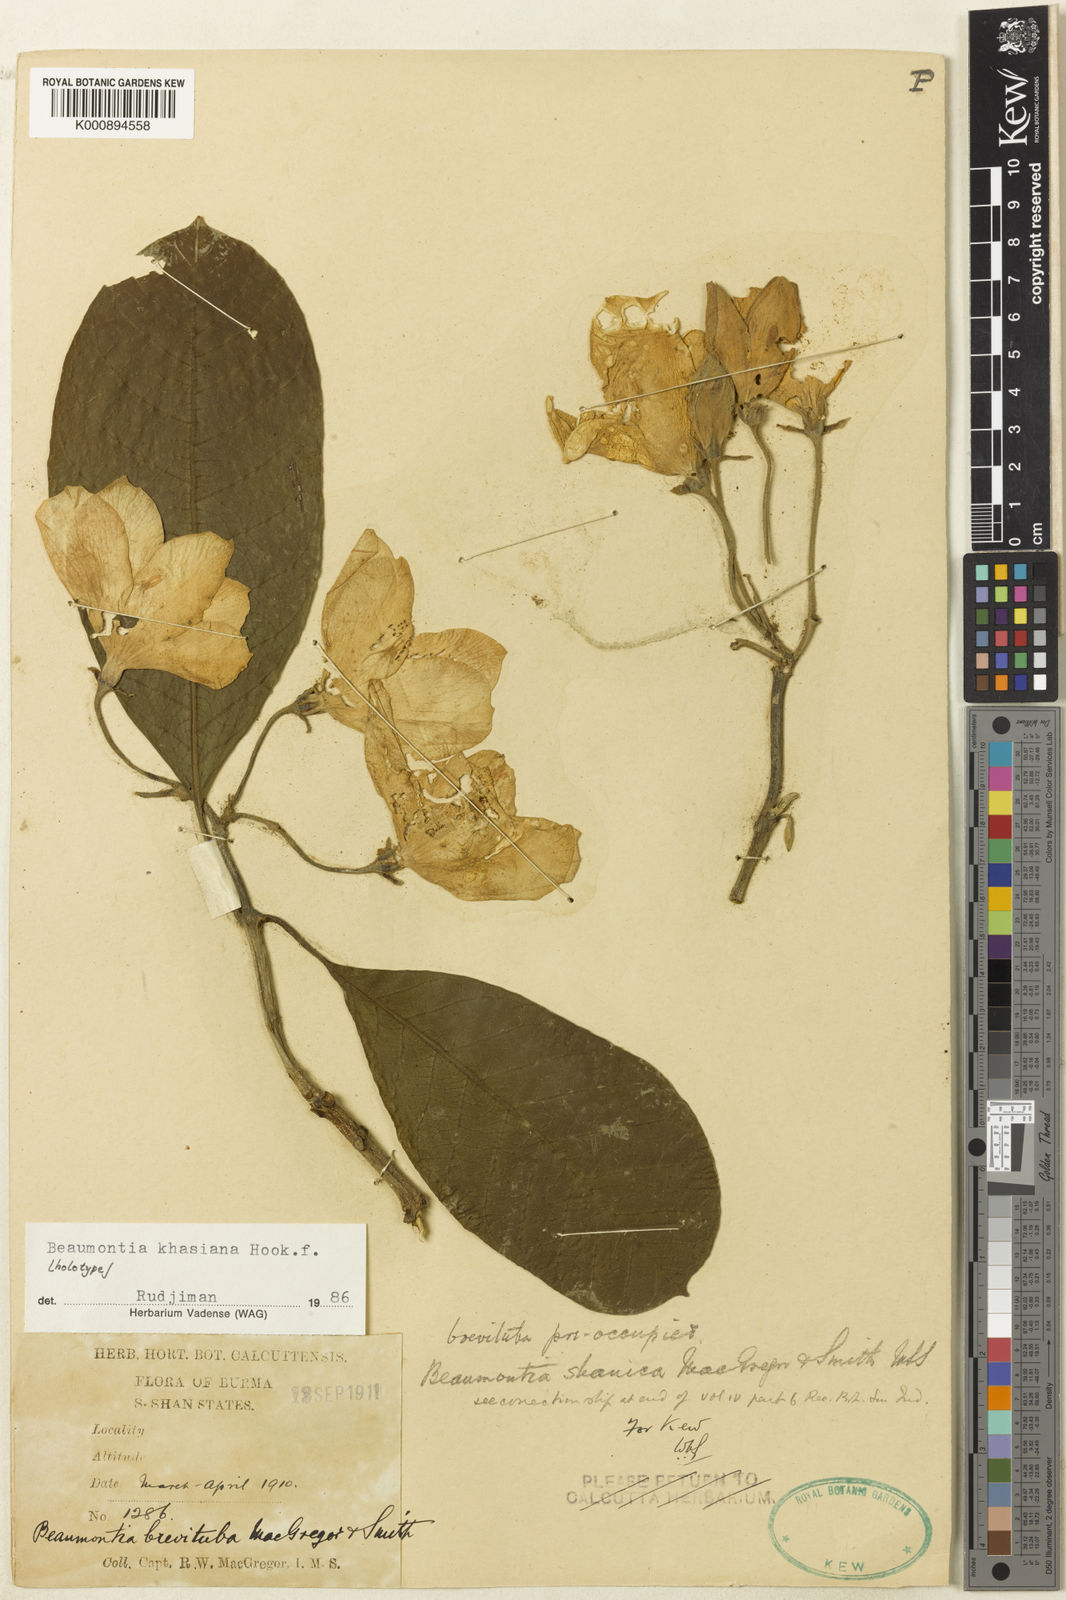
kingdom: Plantae
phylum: Tracheophyta
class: Magnoliopsida
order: Gentianales
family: Apocynaceae
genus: Beaumontia
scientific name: Beaumontia khasiana
